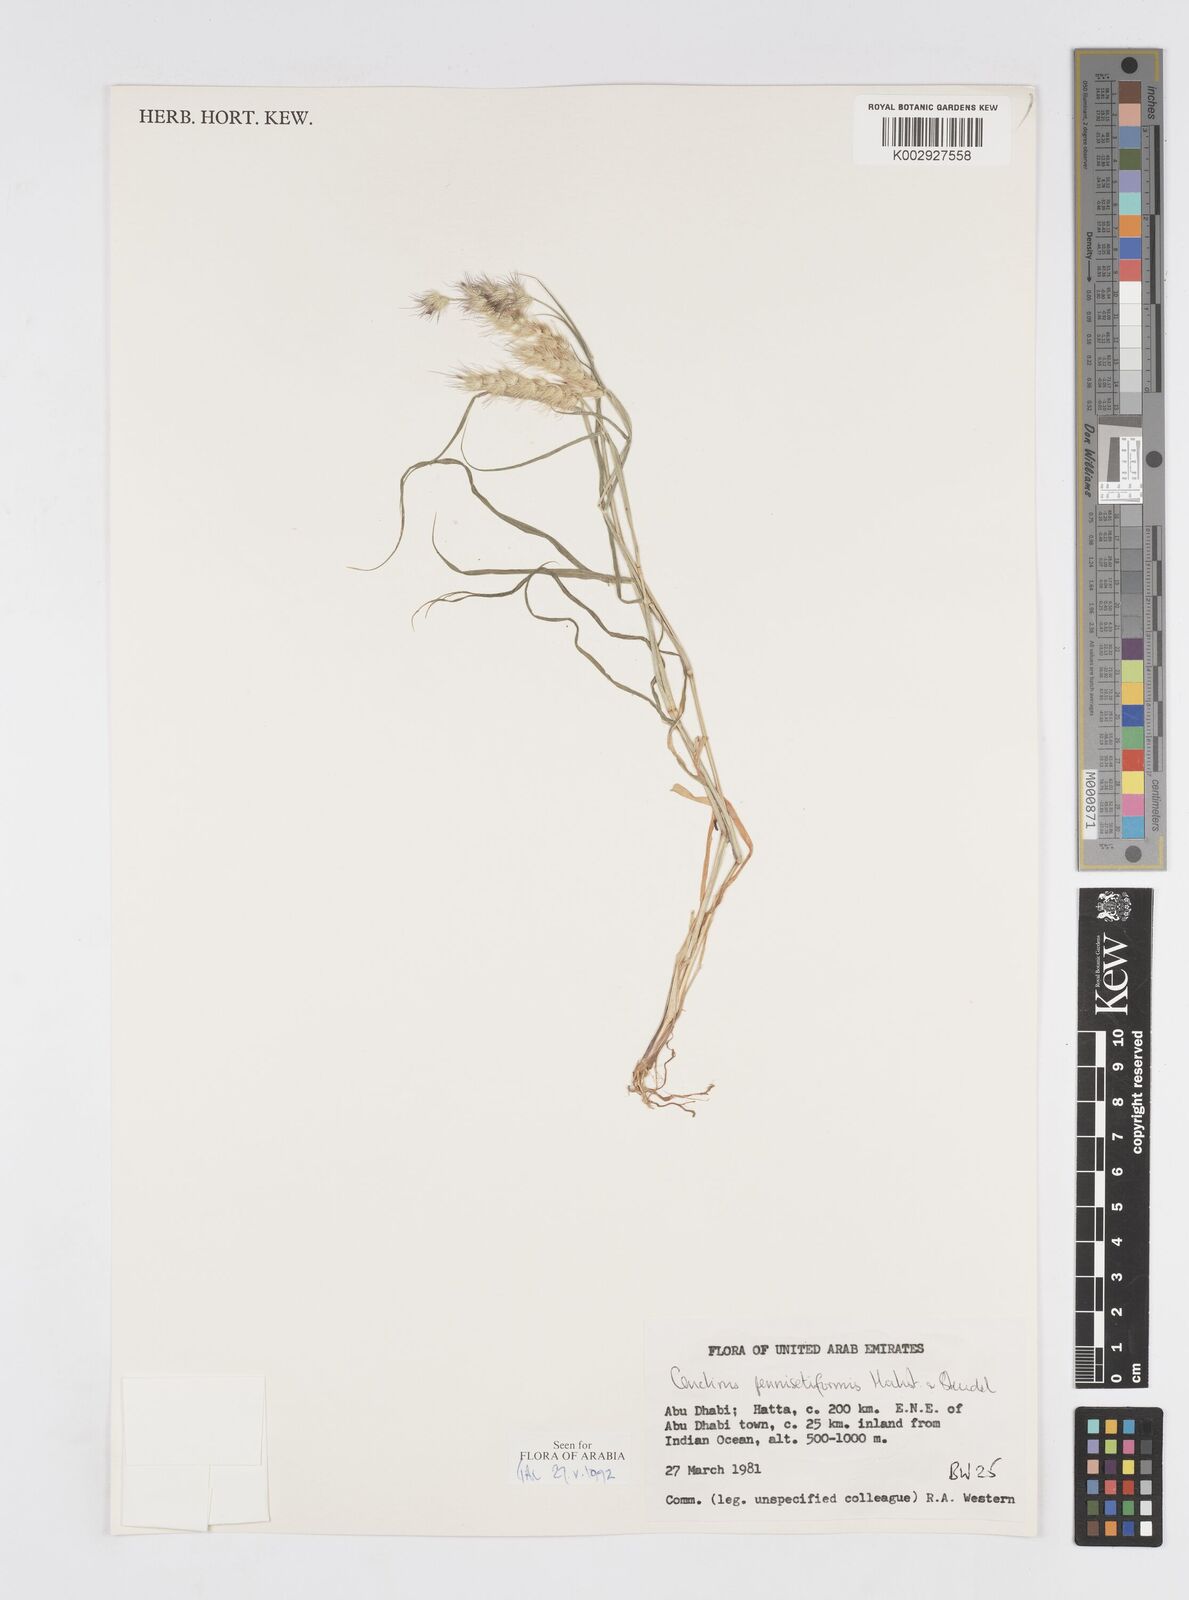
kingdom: Plantae
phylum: Tracheophyta
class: Liliopsida
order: Poales
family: Poaceae
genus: Cenchrus
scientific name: Cenchrus pennisetiformis
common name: Cloncurry
